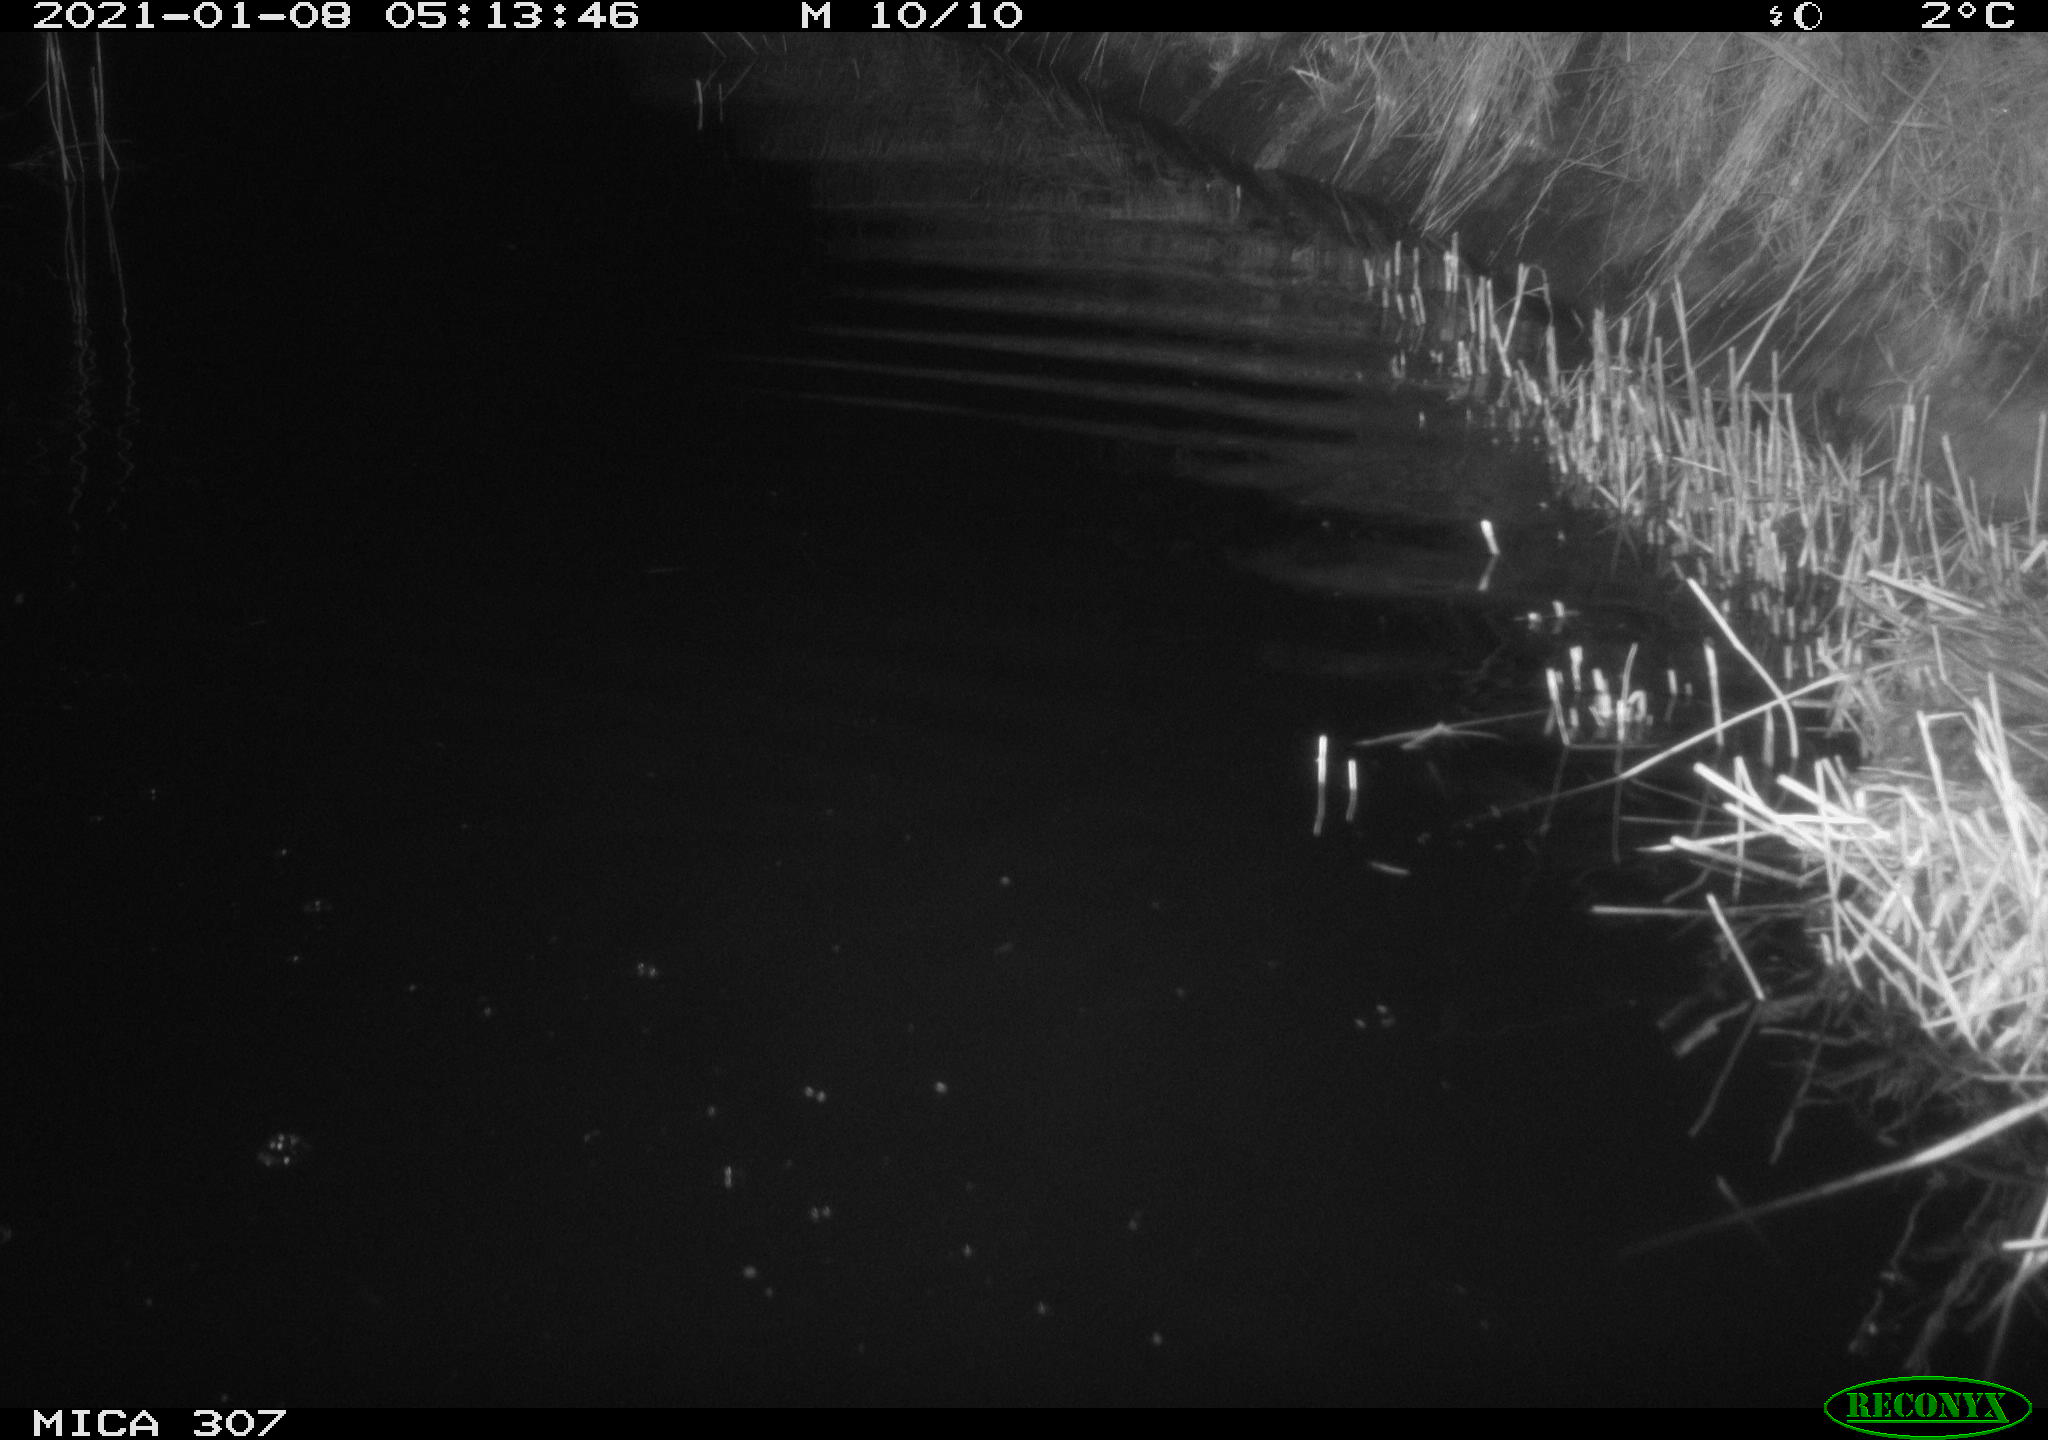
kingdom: Animalia
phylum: Chordata
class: Mammalia
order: Rodentia
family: Muridae
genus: Rattus
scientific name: Rattus norvegicus
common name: Brown rat
